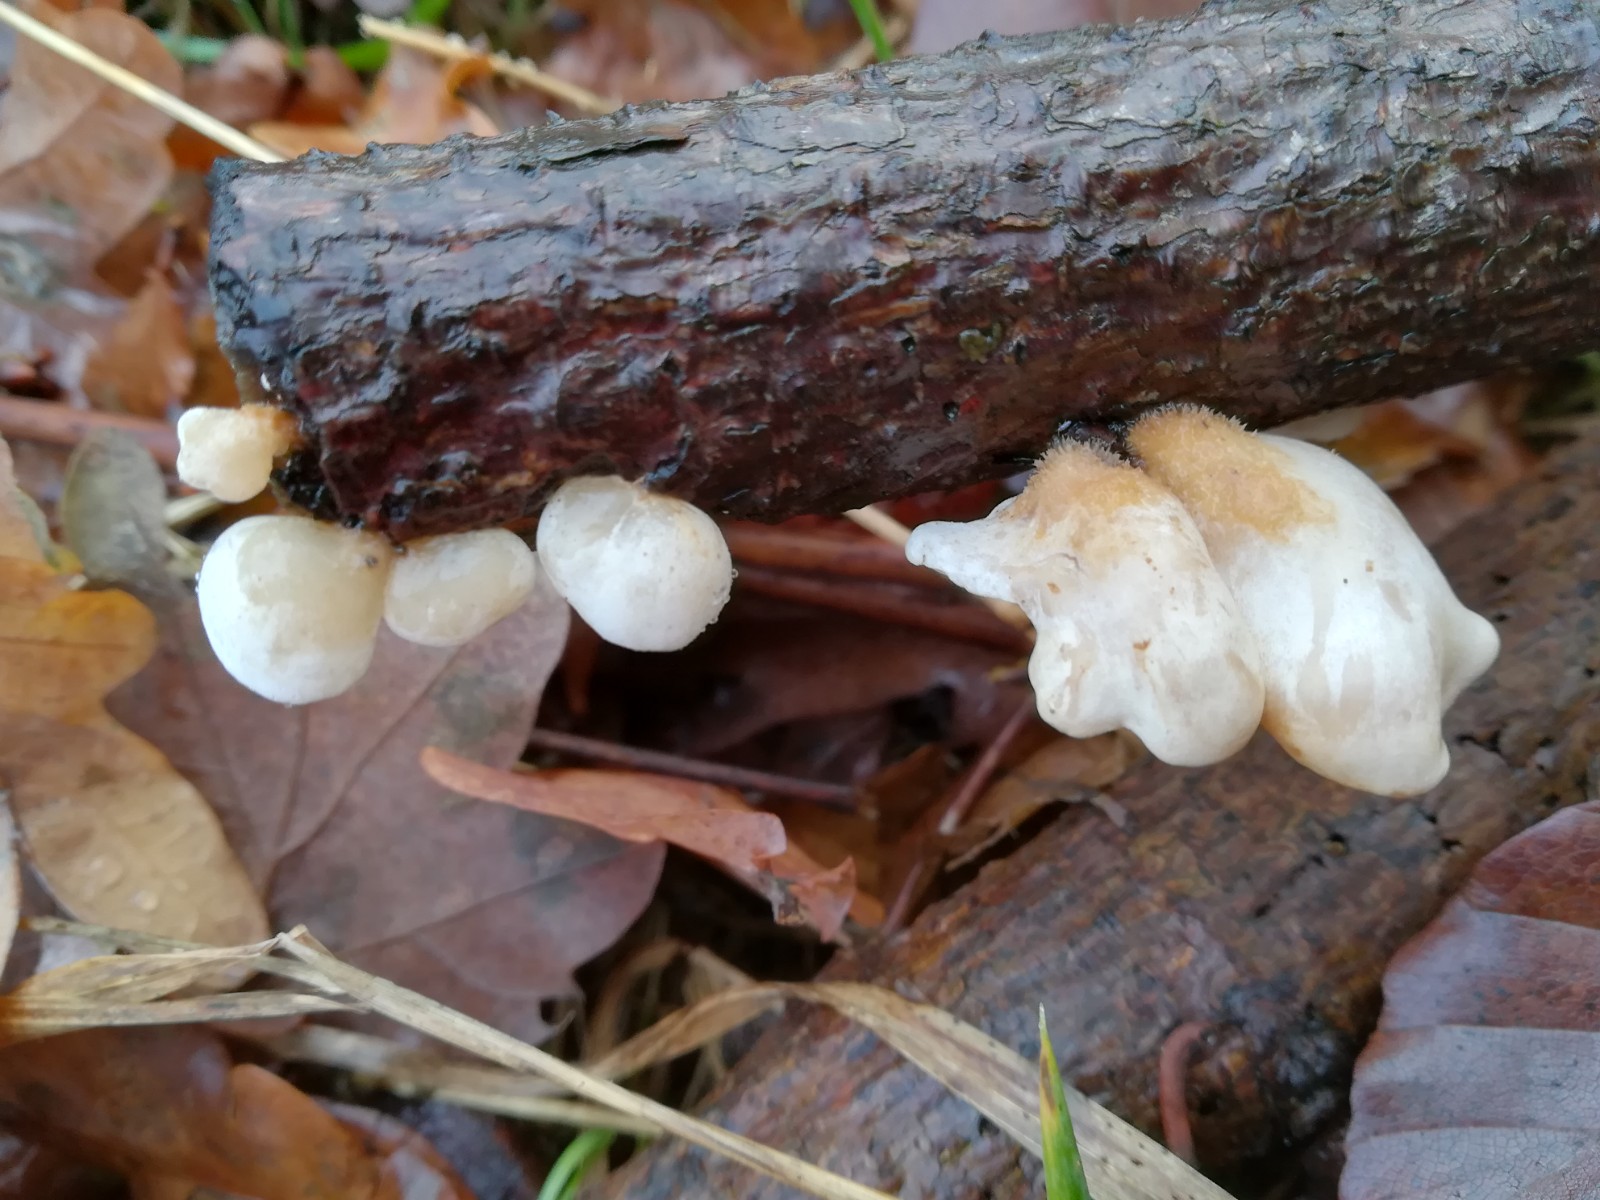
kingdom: Fungi
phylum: Basidiomycota
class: Agaricomycetes
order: Agaricales
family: Mycenaceae
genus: Panellus
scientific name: Panellus mitis
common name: mild epaulethat
